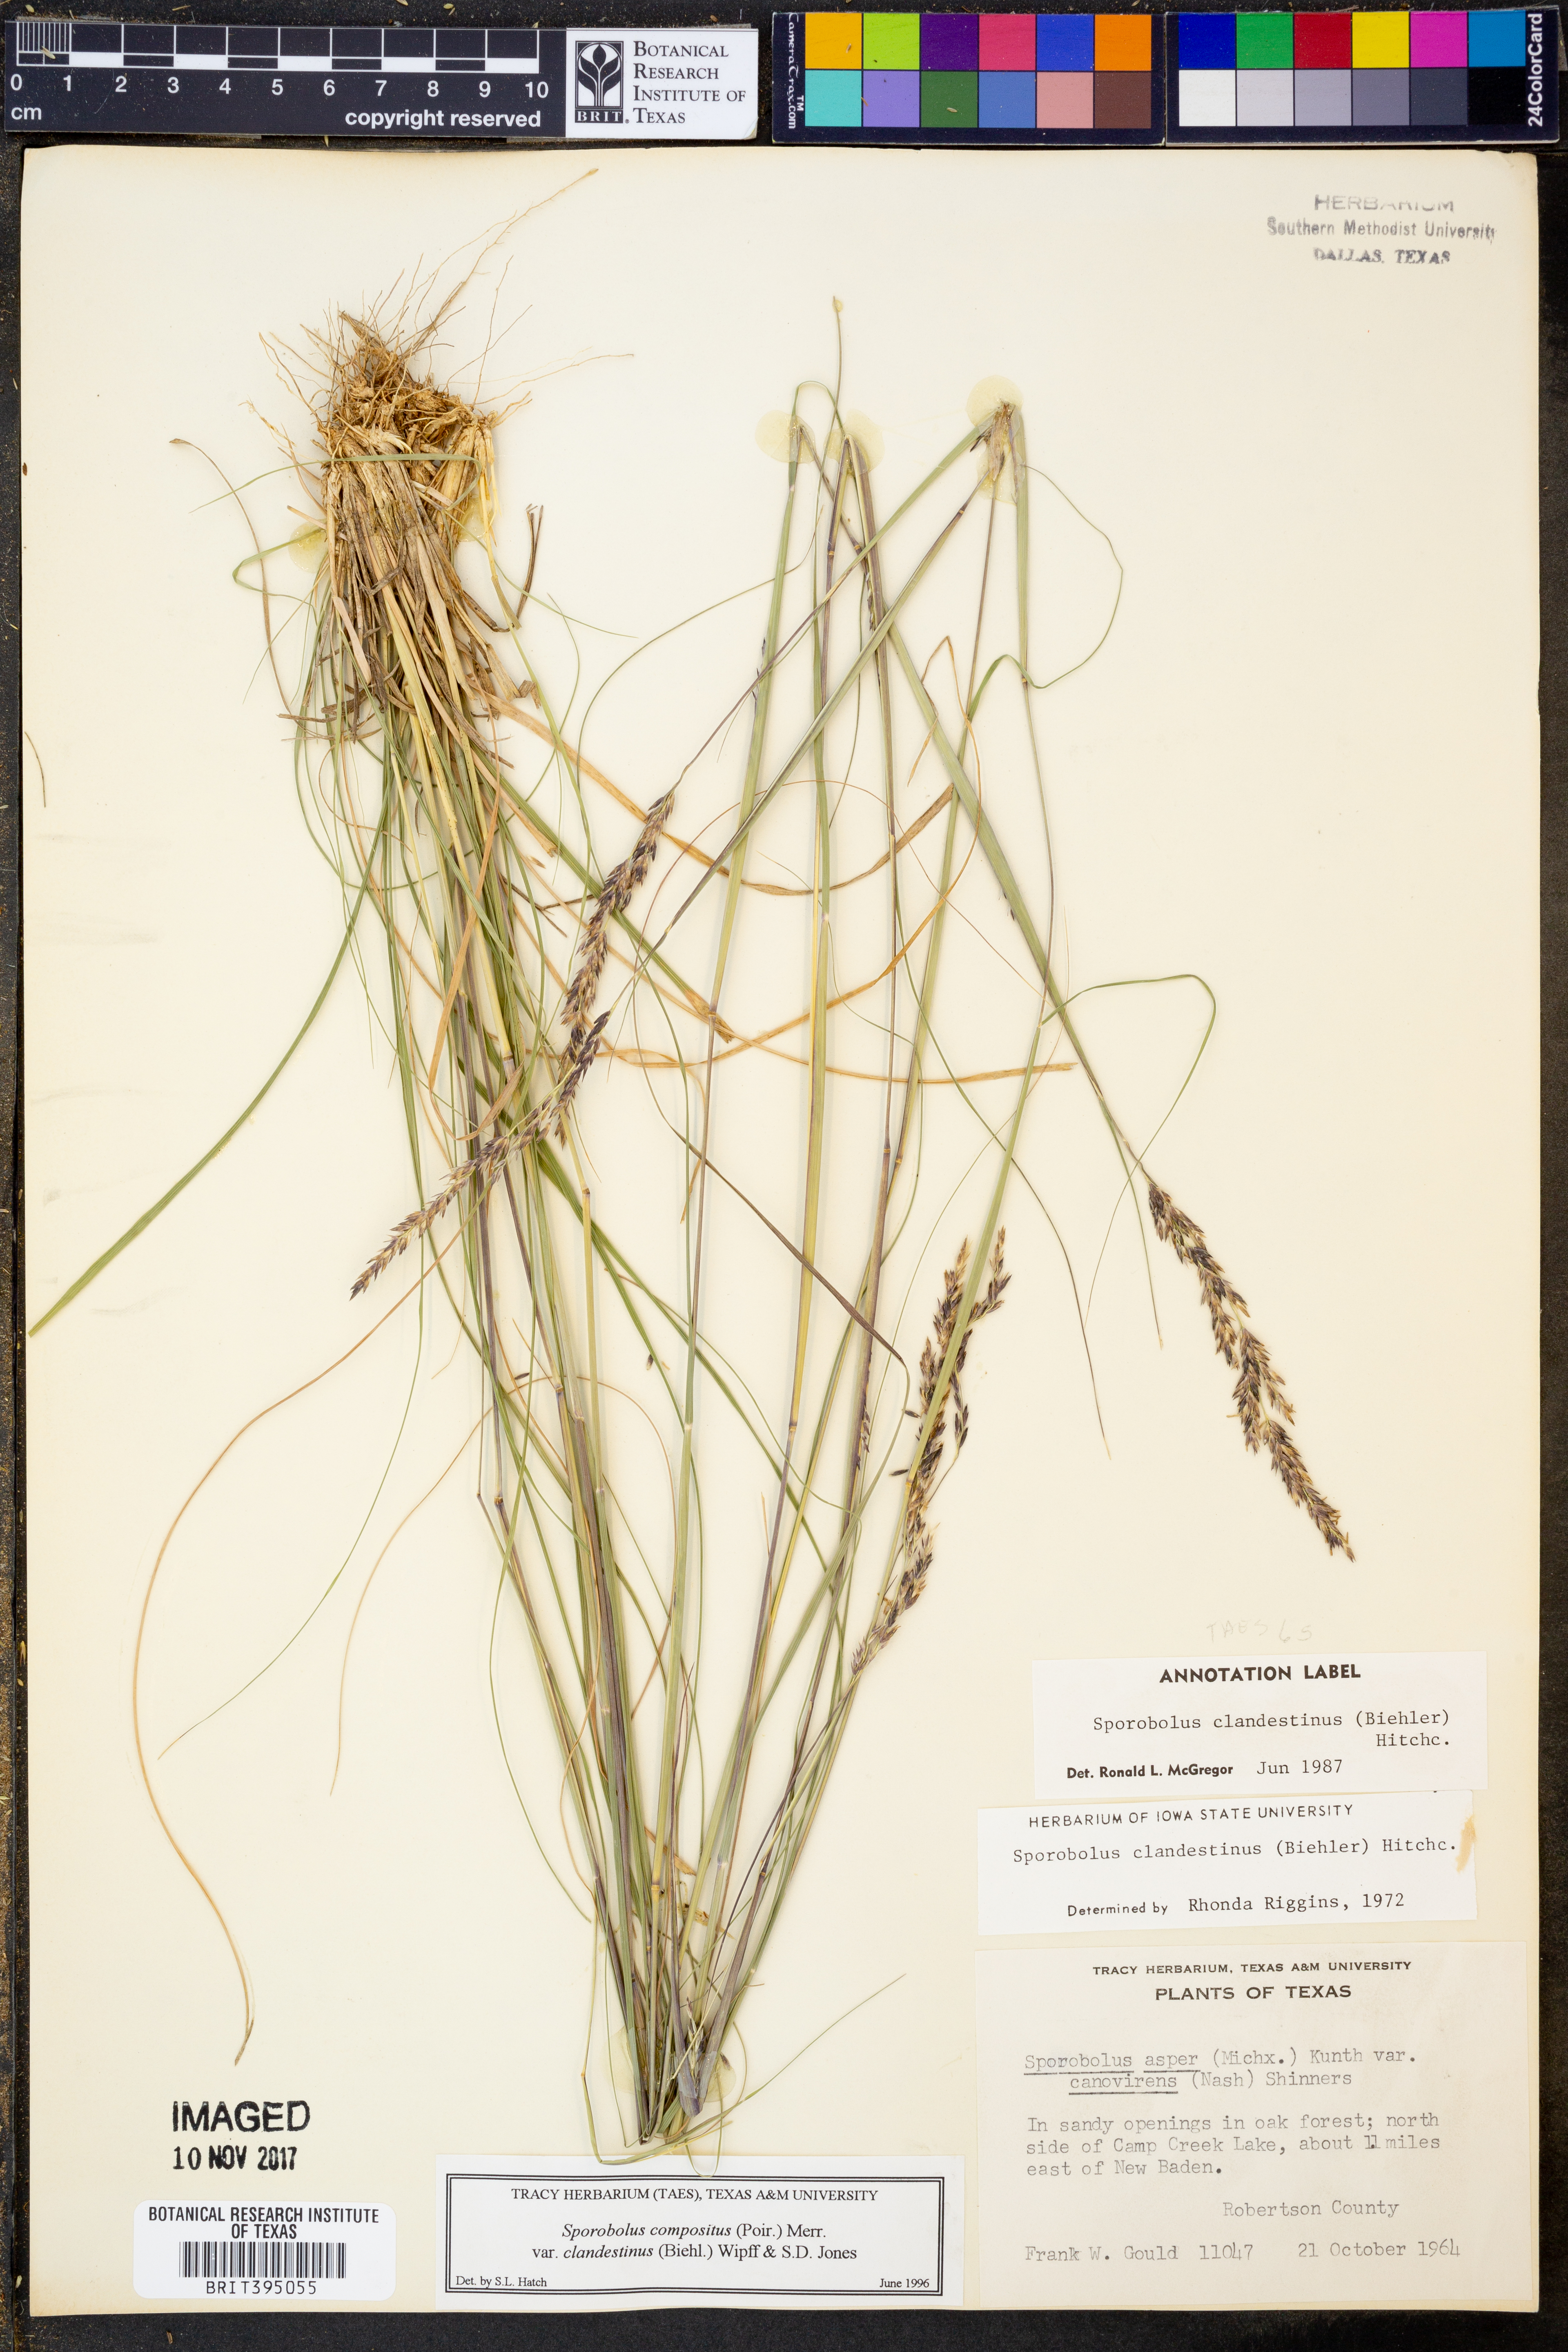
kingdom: Plantae
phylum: Tracheophyta
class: Liliopsida
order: Poales
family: Poaceae
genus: Sporobolus
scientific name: Sporobolus clandestinus
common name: Hidden dropseed
